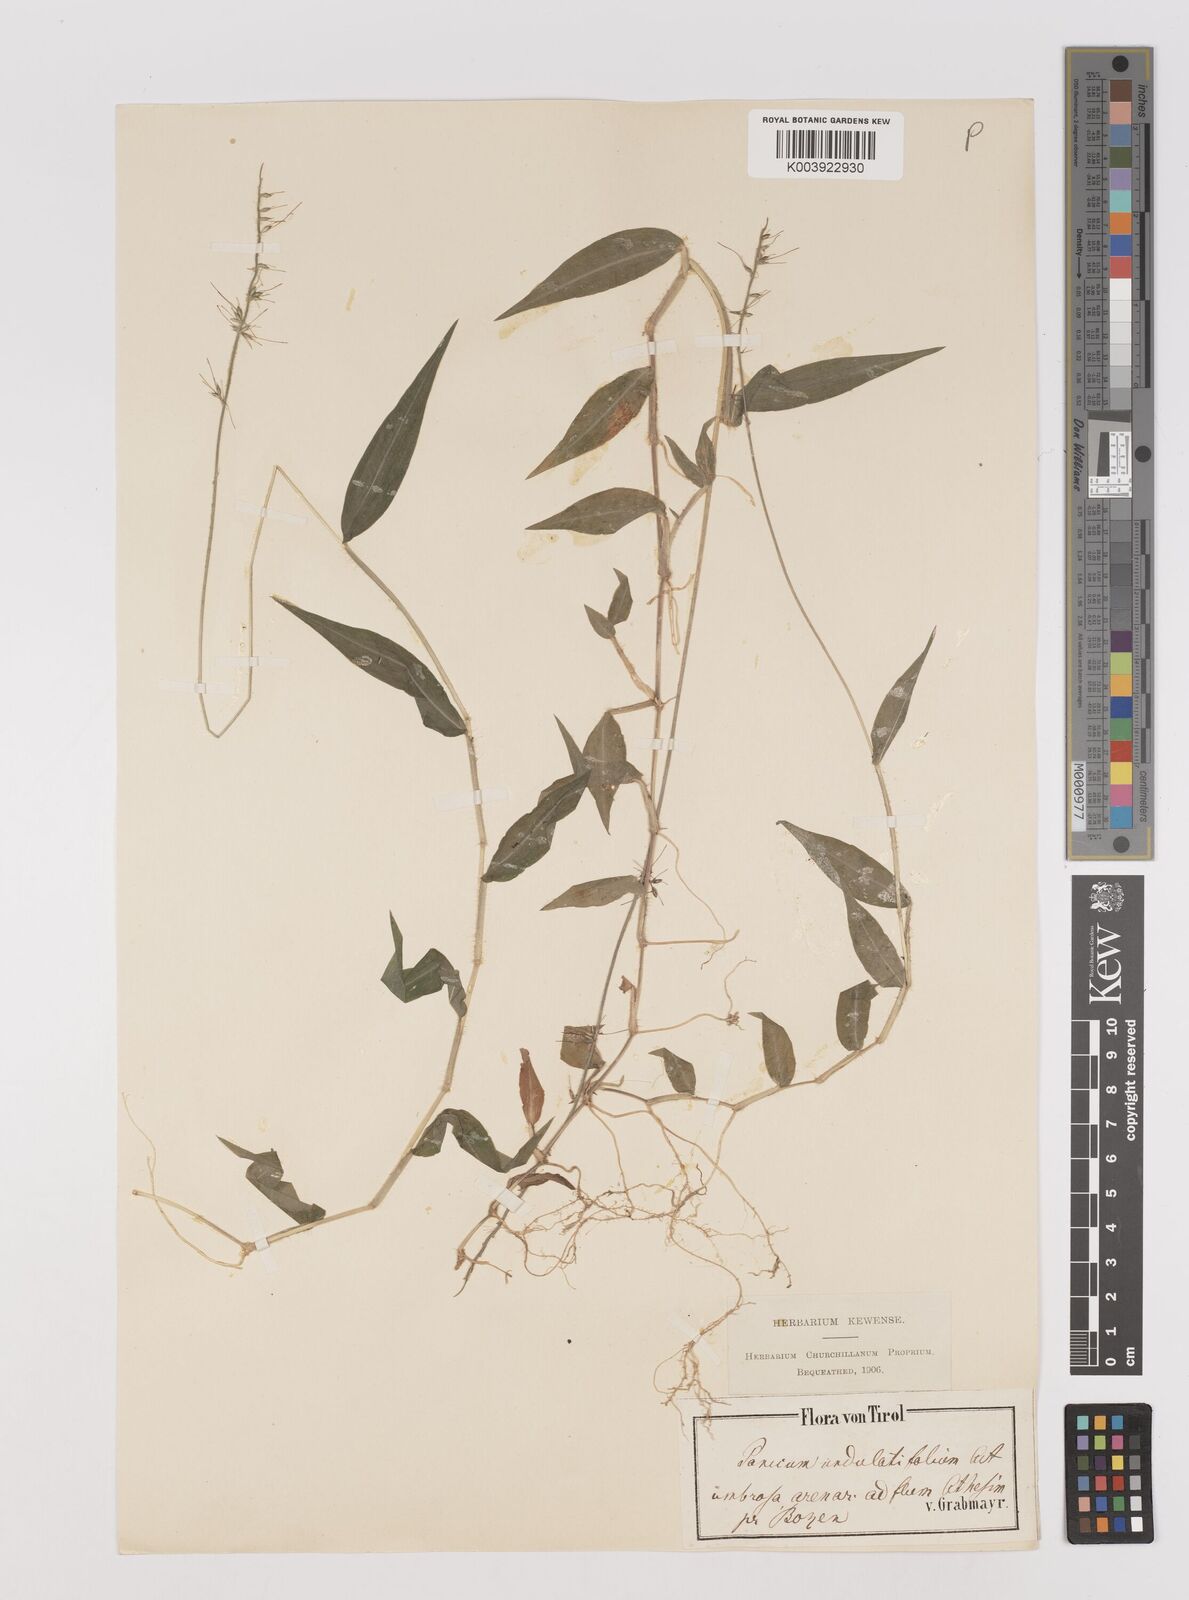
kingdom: Plantae
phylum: Tracheophyta
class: Liliopsida
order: Poales
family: Poaceae
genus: Oplismenus
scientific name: Oplismenus undulatifolius
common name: Wavyleaf basketgrass
